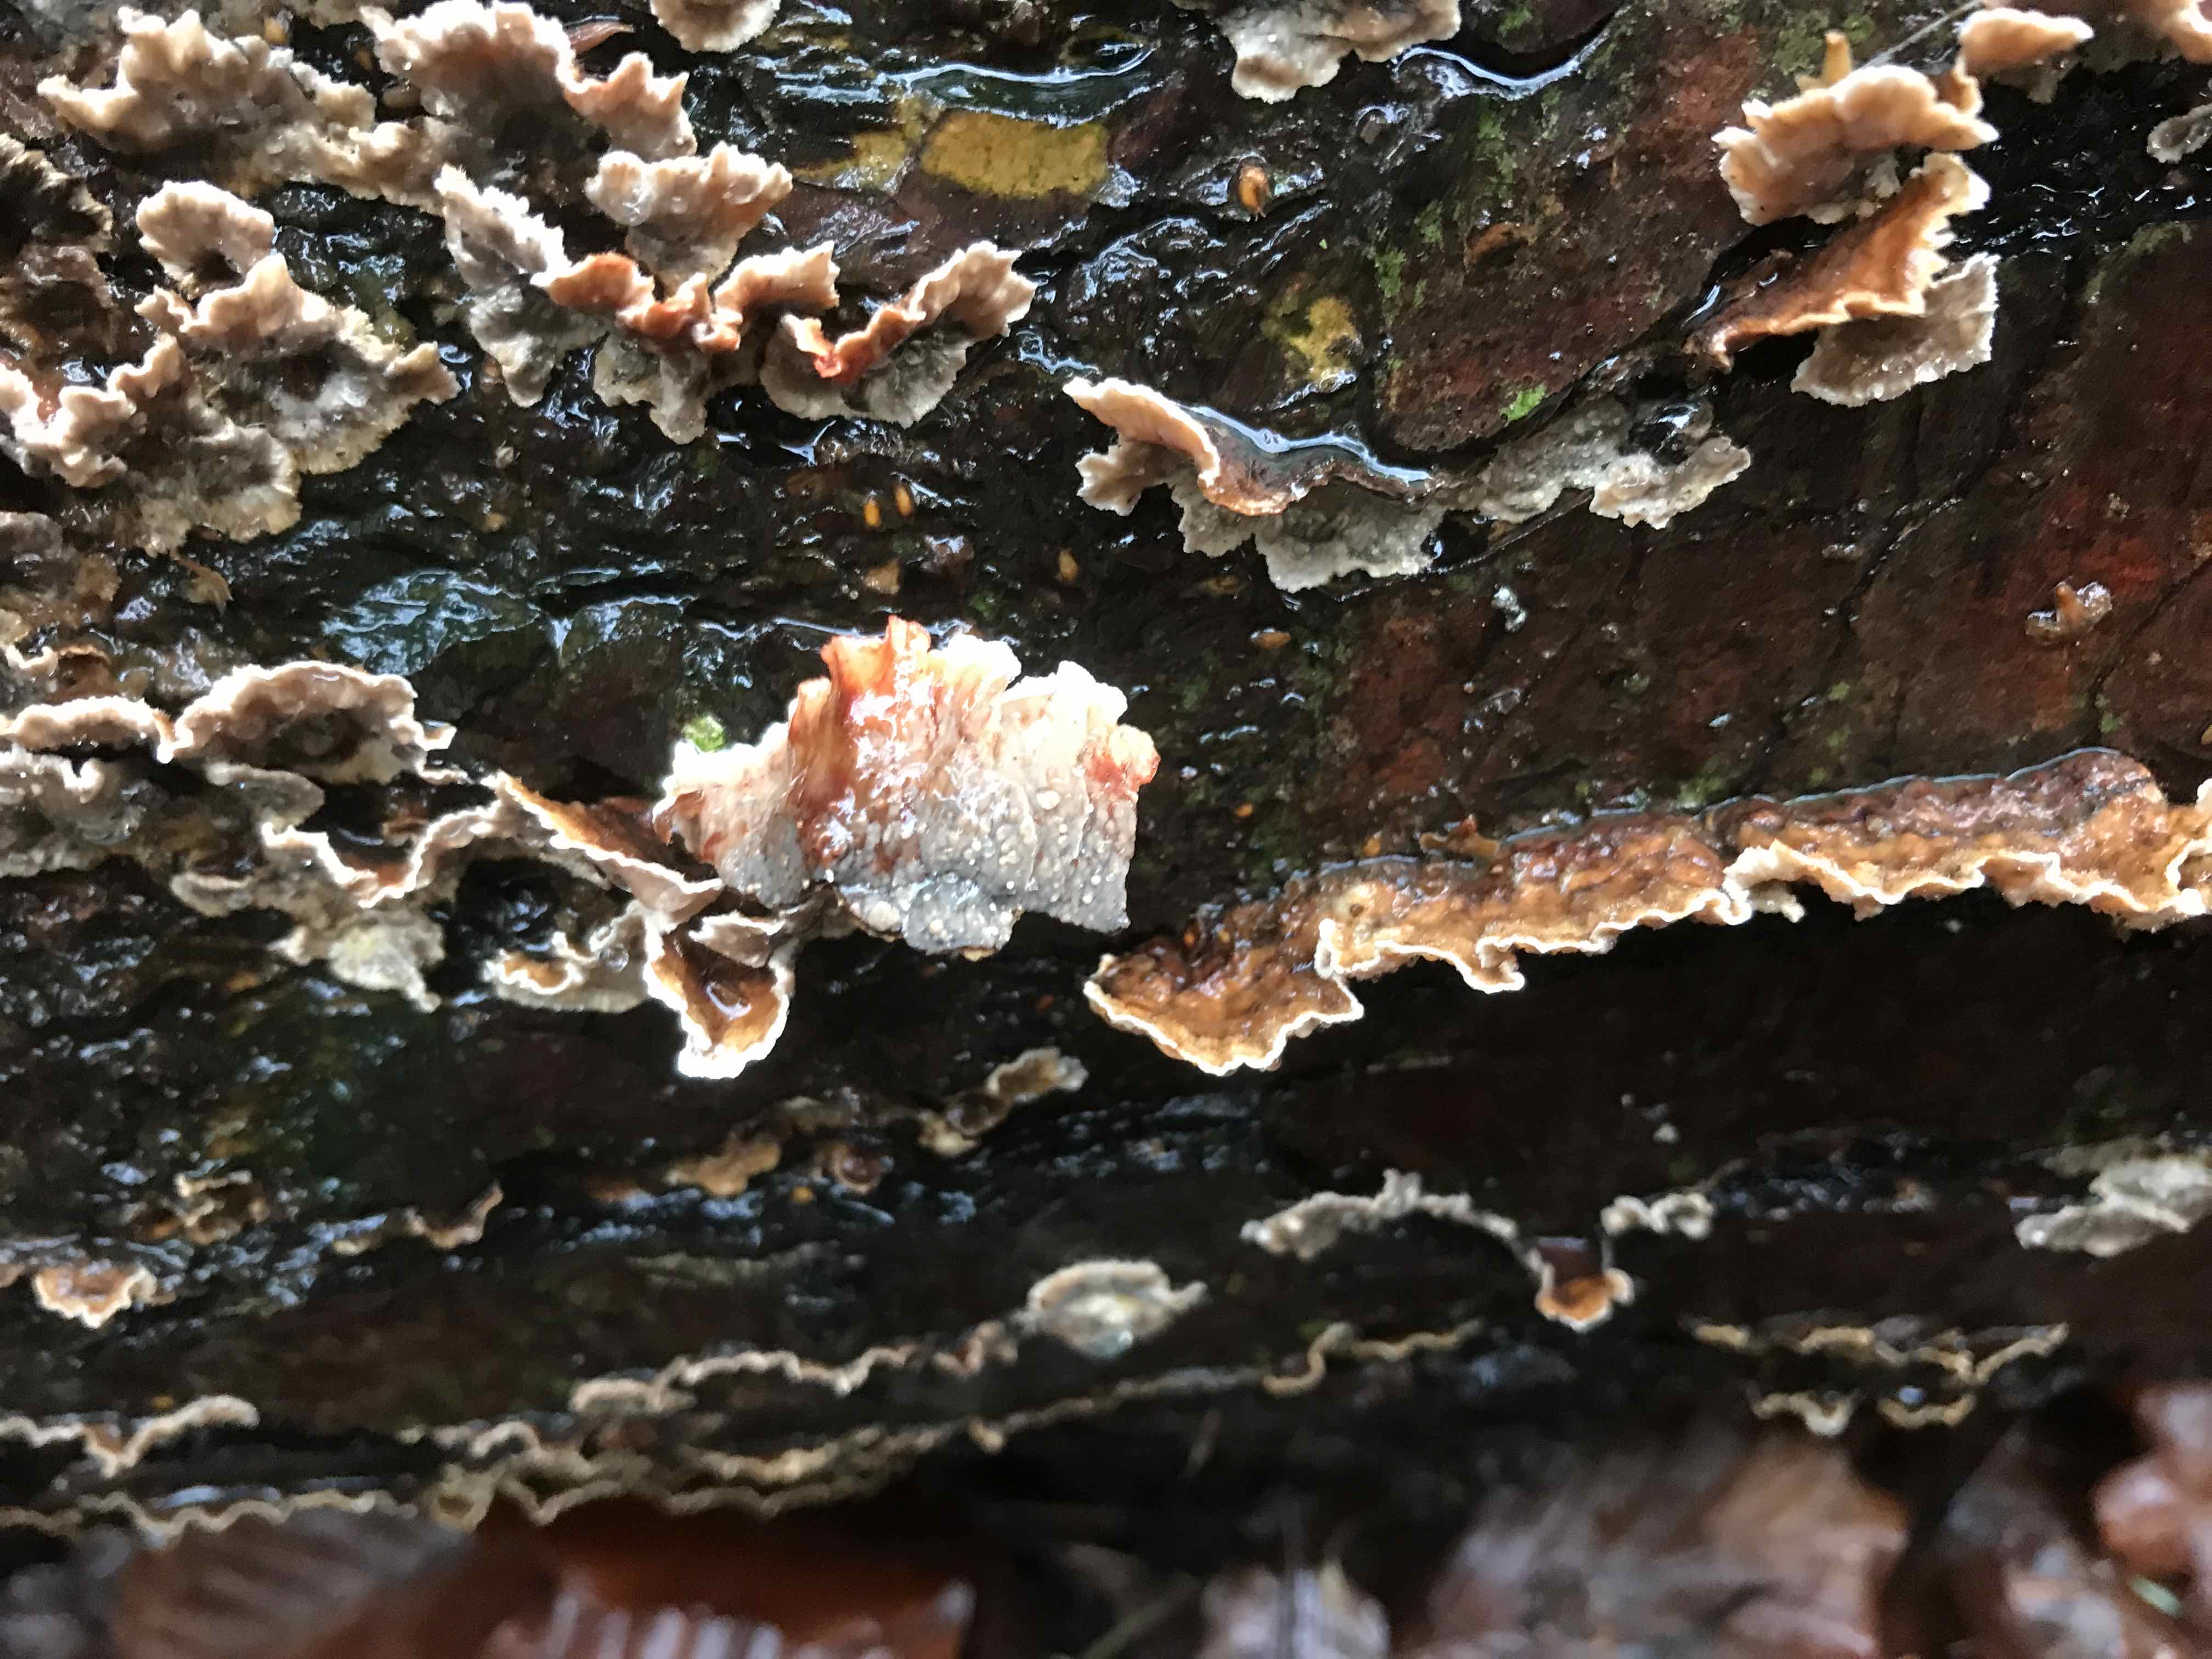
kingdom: Fungi
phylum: Basidiomycota
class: Agaricomycetes
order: Russulales
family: Stereaceae
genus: Stereum
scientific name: Stereum sanguinolentum
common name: blødende lædersvamp
